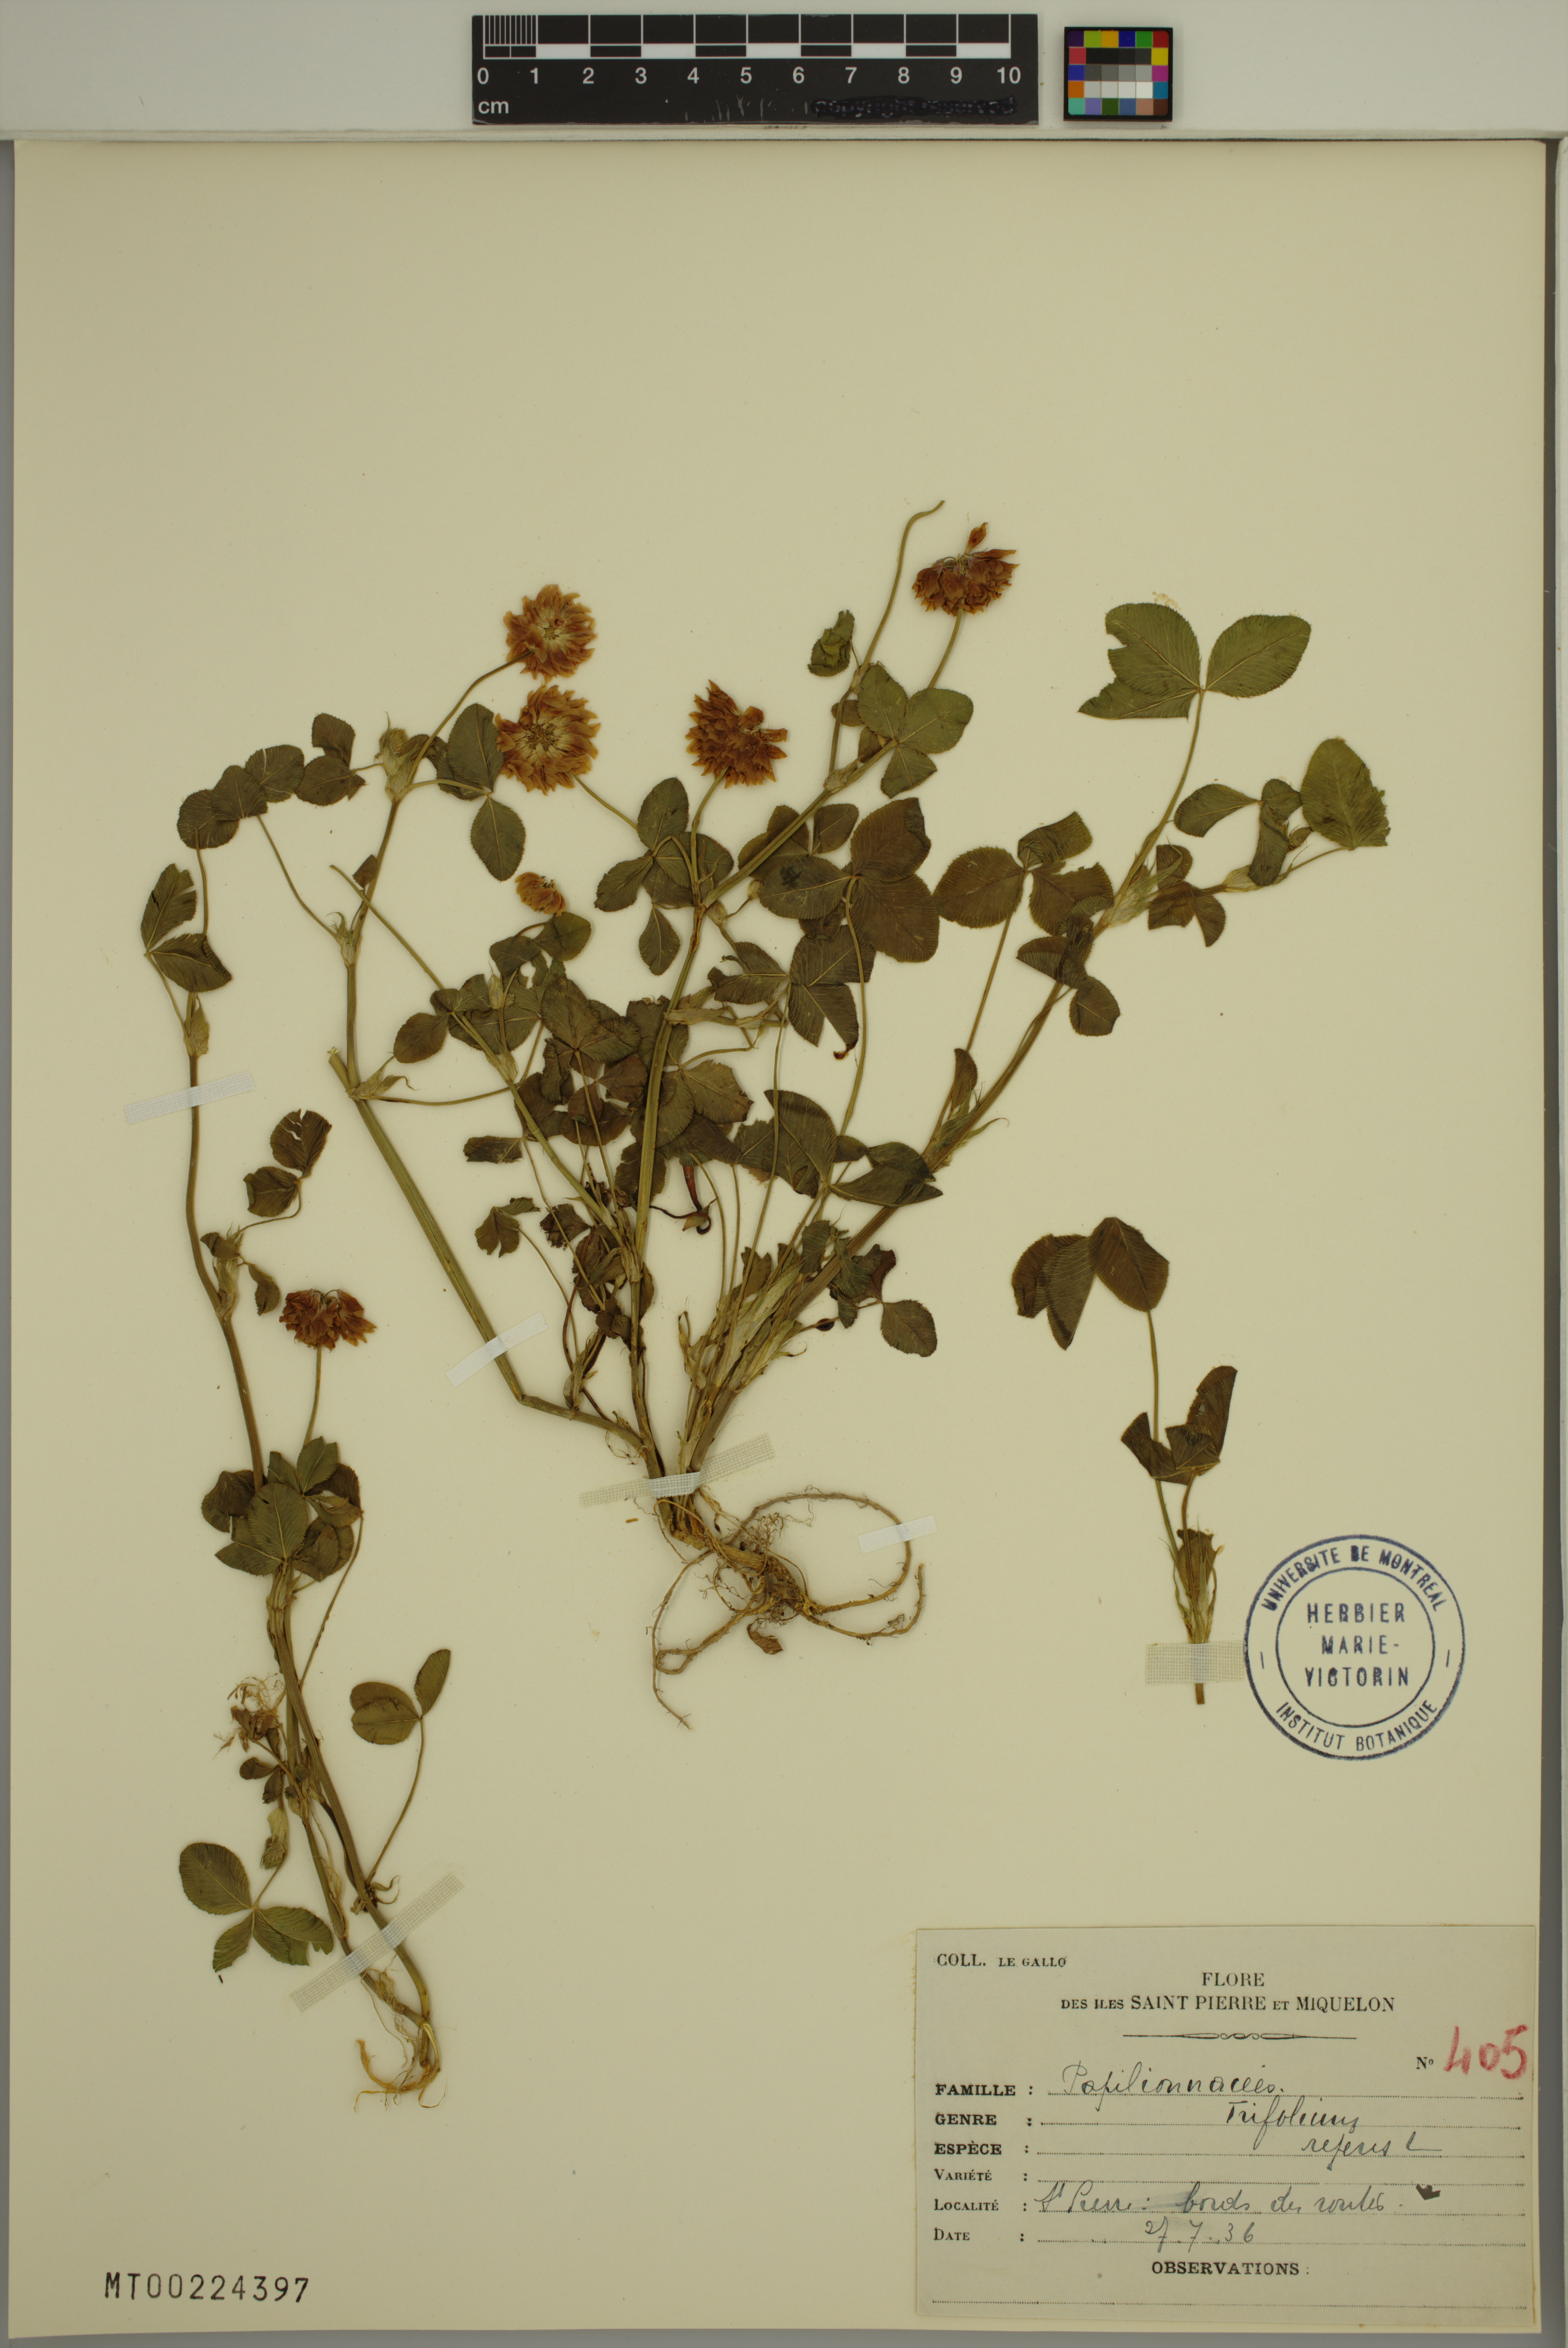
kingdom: Plantae
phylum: Tracheophyta
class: Magnoliopsida
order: Fabales
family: Fabaceae
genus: Trifolium
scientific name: Trifolium repens
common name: White clover
